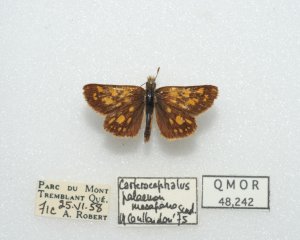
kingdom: Animalia
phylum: Arthropoda
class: Insecta
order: Lepidoptera
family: Hesperiidae
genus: Carterocephalus
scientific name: Carterocephalus palaemon
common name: Chequered Skipper
